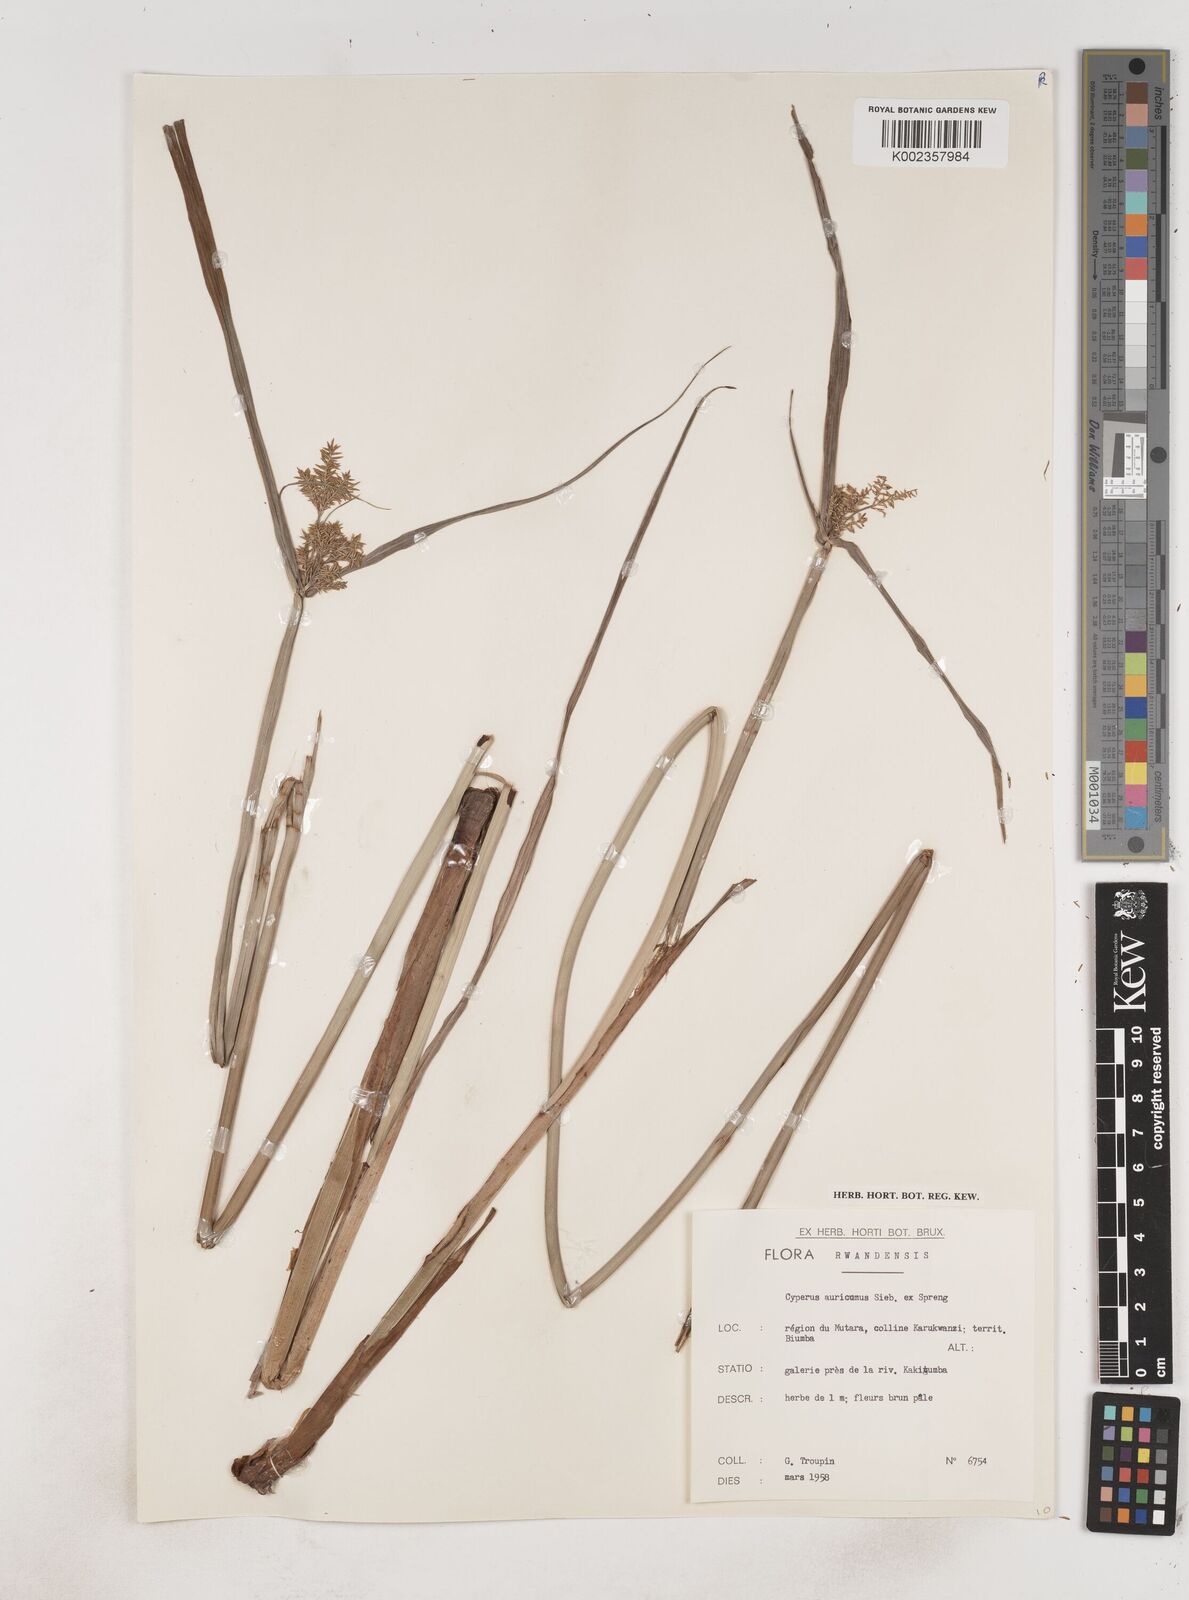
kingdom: Plantae
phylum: Tracheophyta
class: Liliopsida
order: Poales
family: Cyperaceae
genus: Cyperus
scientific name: Cyperus digitatus
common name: Finger flatsedge
